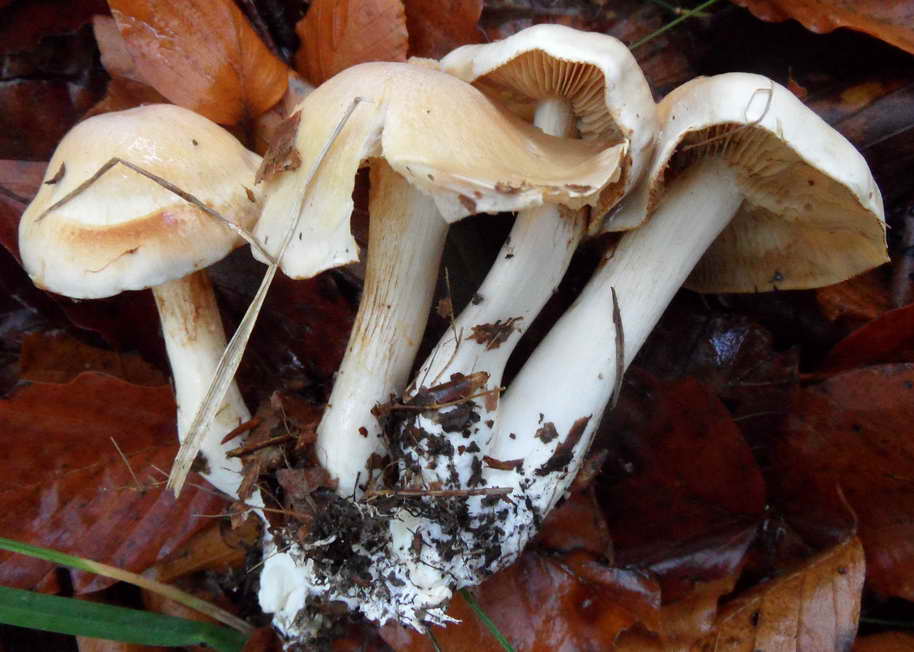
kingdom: Fungi
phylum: Basidiomycota
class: Agaricomycetes
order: Agaricales
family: Cortinariaceae
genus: Thaxterogaster
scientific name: Thaxterogaster barbatus
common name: elfenbens-slørhat
